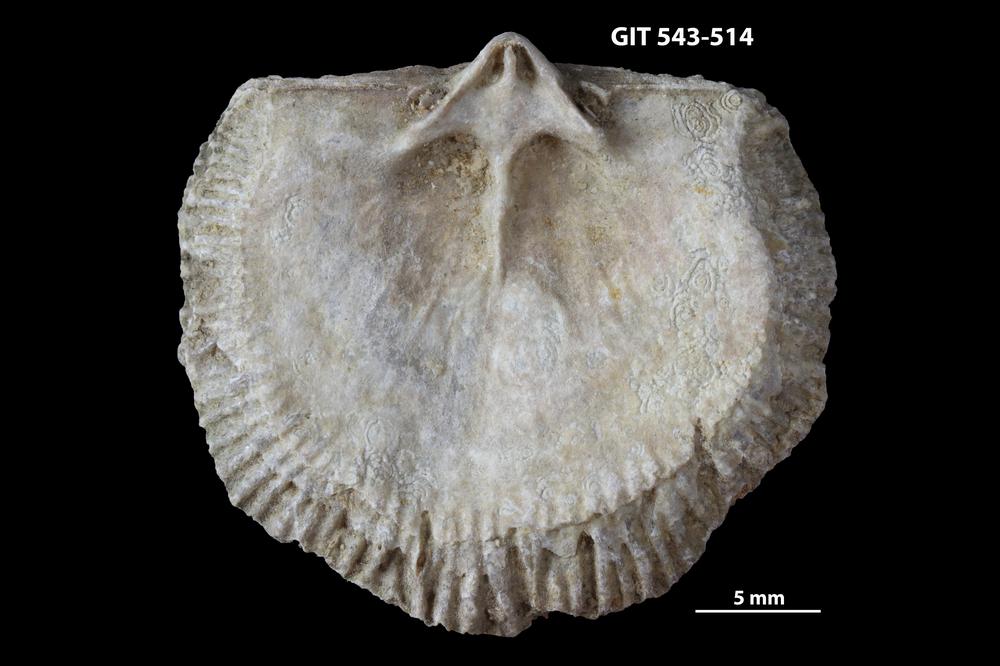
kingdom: Animalia
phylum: Brachiopoda
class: Rhynchonellata
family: Clitambonitidae
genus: Clitambonites
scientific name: Clitambonites
